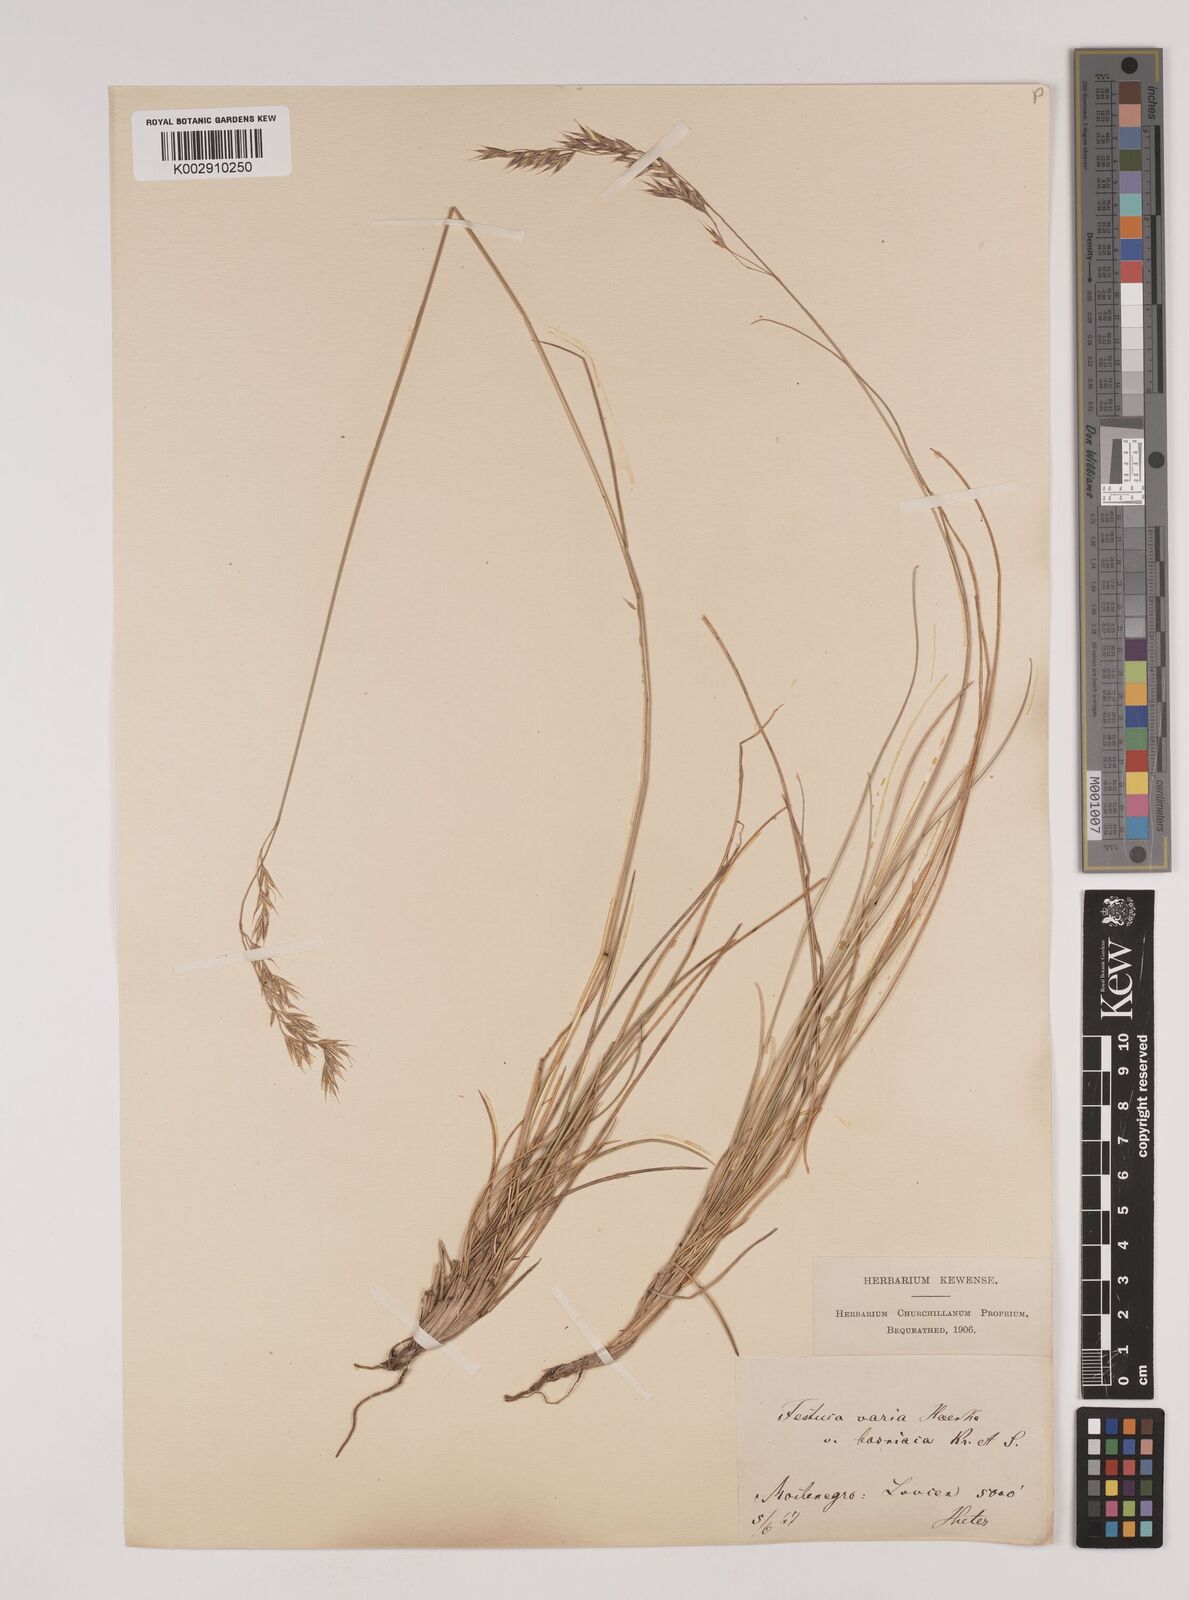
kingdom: Plantae
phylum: Tracheophyta
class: Liliopsida
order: Poales
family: Poaceae
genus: Festuca
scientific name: Festuca bosniaca
